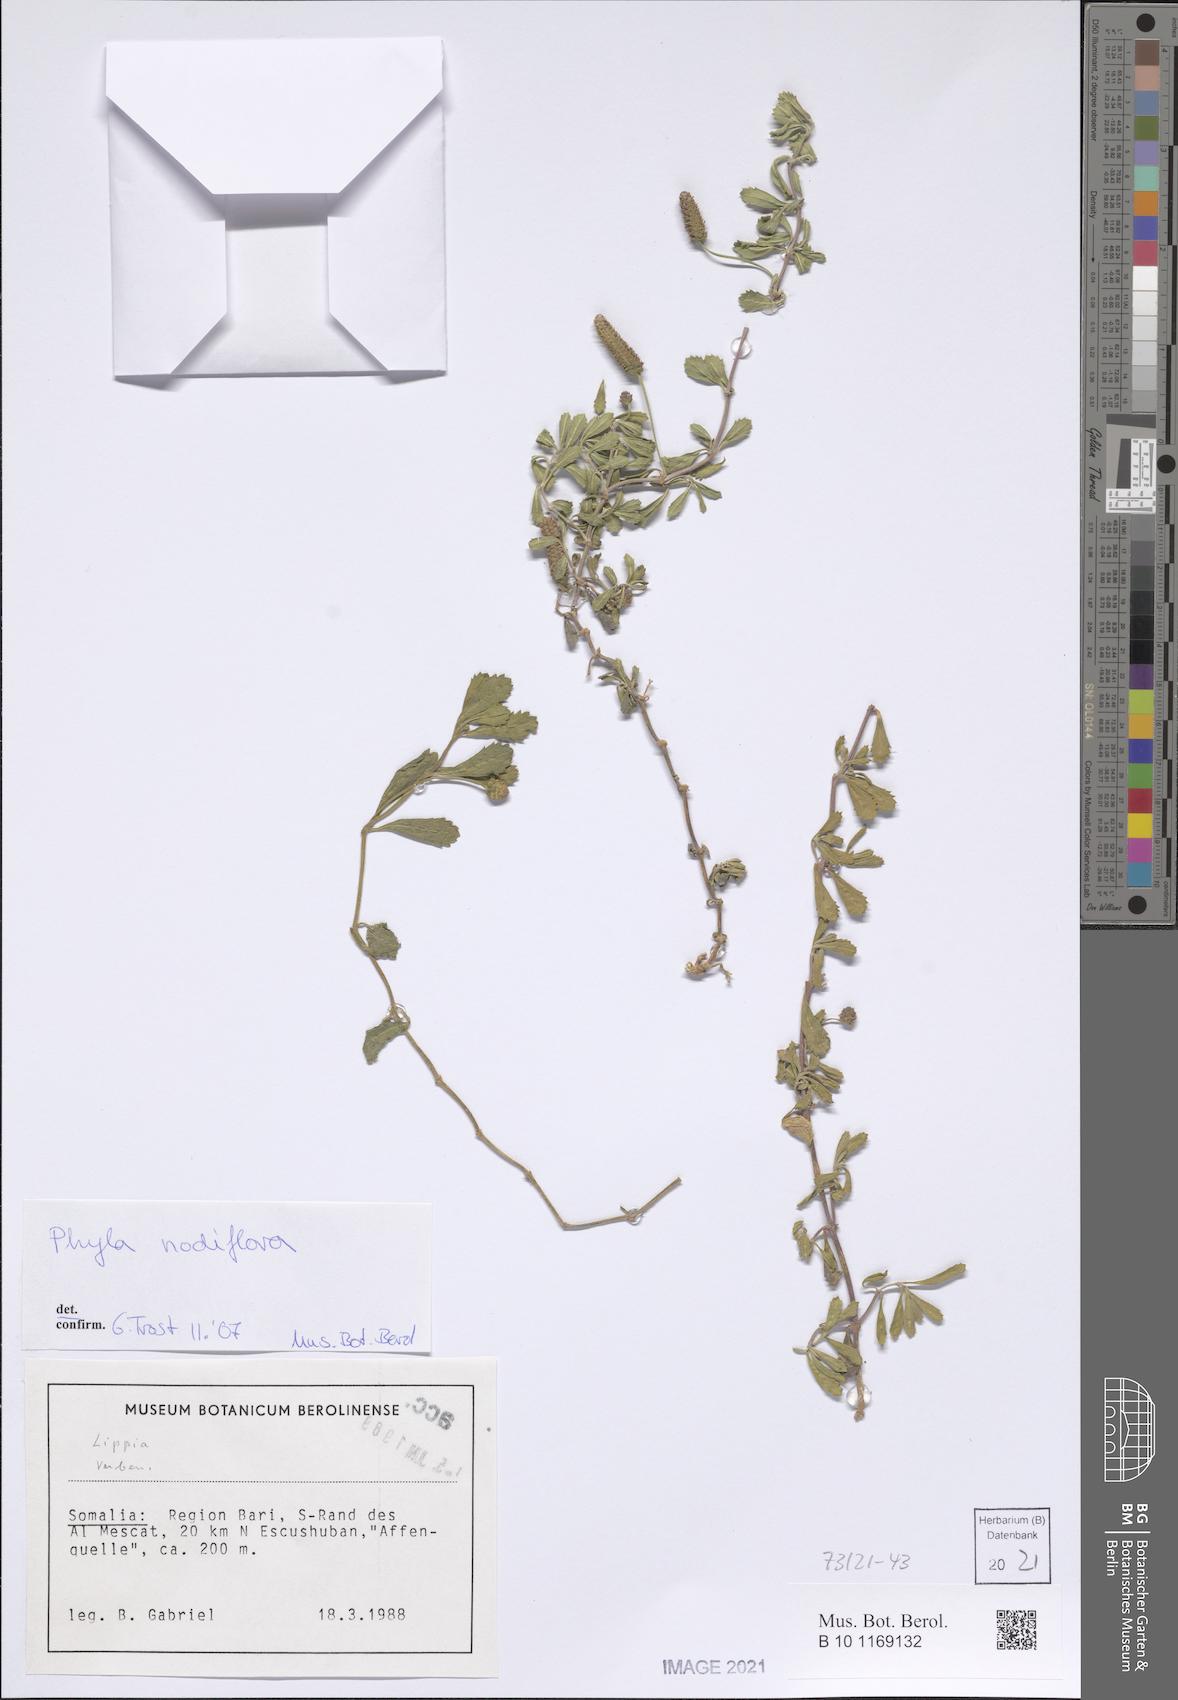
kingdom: Plantae
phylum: Tracheophyta
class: Magnoliopsida
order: Lamiales
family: Verbenaceae
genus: Phyla
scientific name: Phyla nodiflora
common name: Frogfruit
